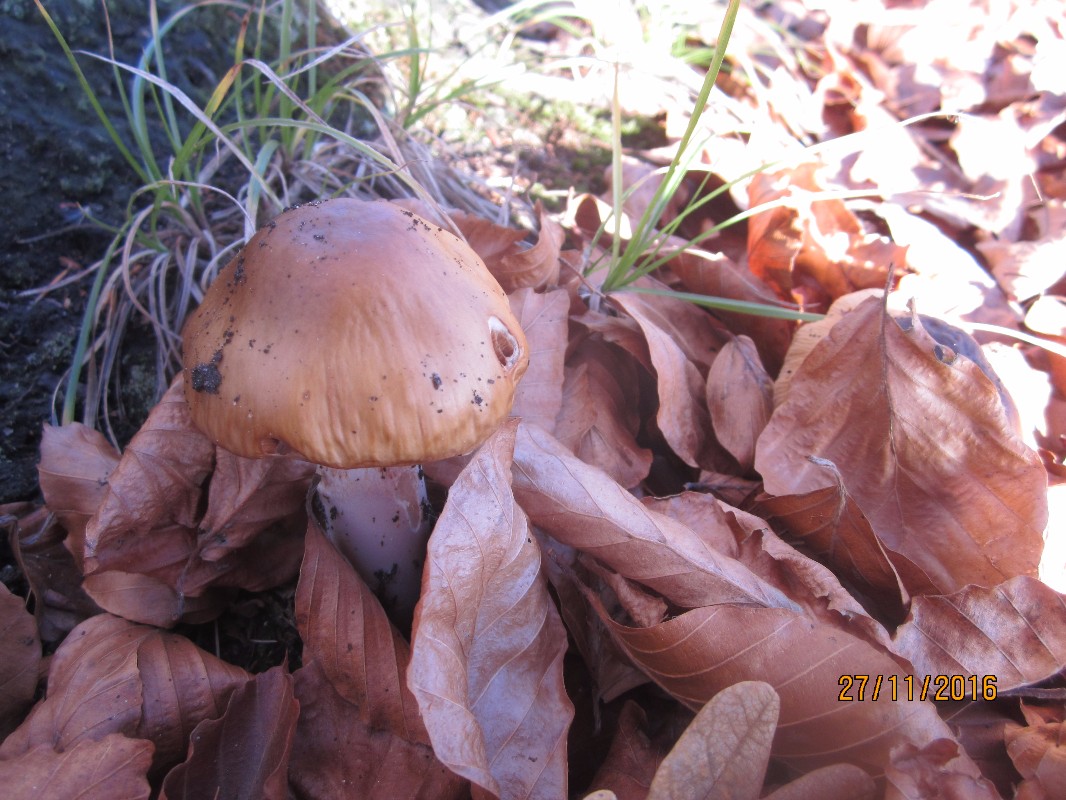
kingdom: Fungi
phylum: Basidiomycota
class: Agaricomycetes
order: Agaricales
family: Cortinariaceae
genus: Cortinarius
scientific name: Cortinarius elatior
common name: høj slørhat
